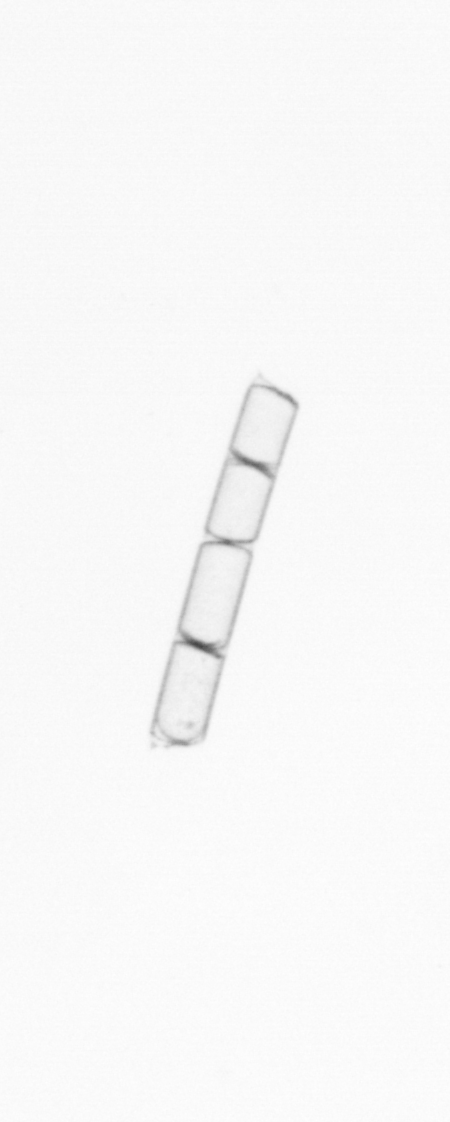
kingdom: Chromista
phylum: Ochrophyta
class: Bacillariophyceae
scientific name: Bacillariophyceae
